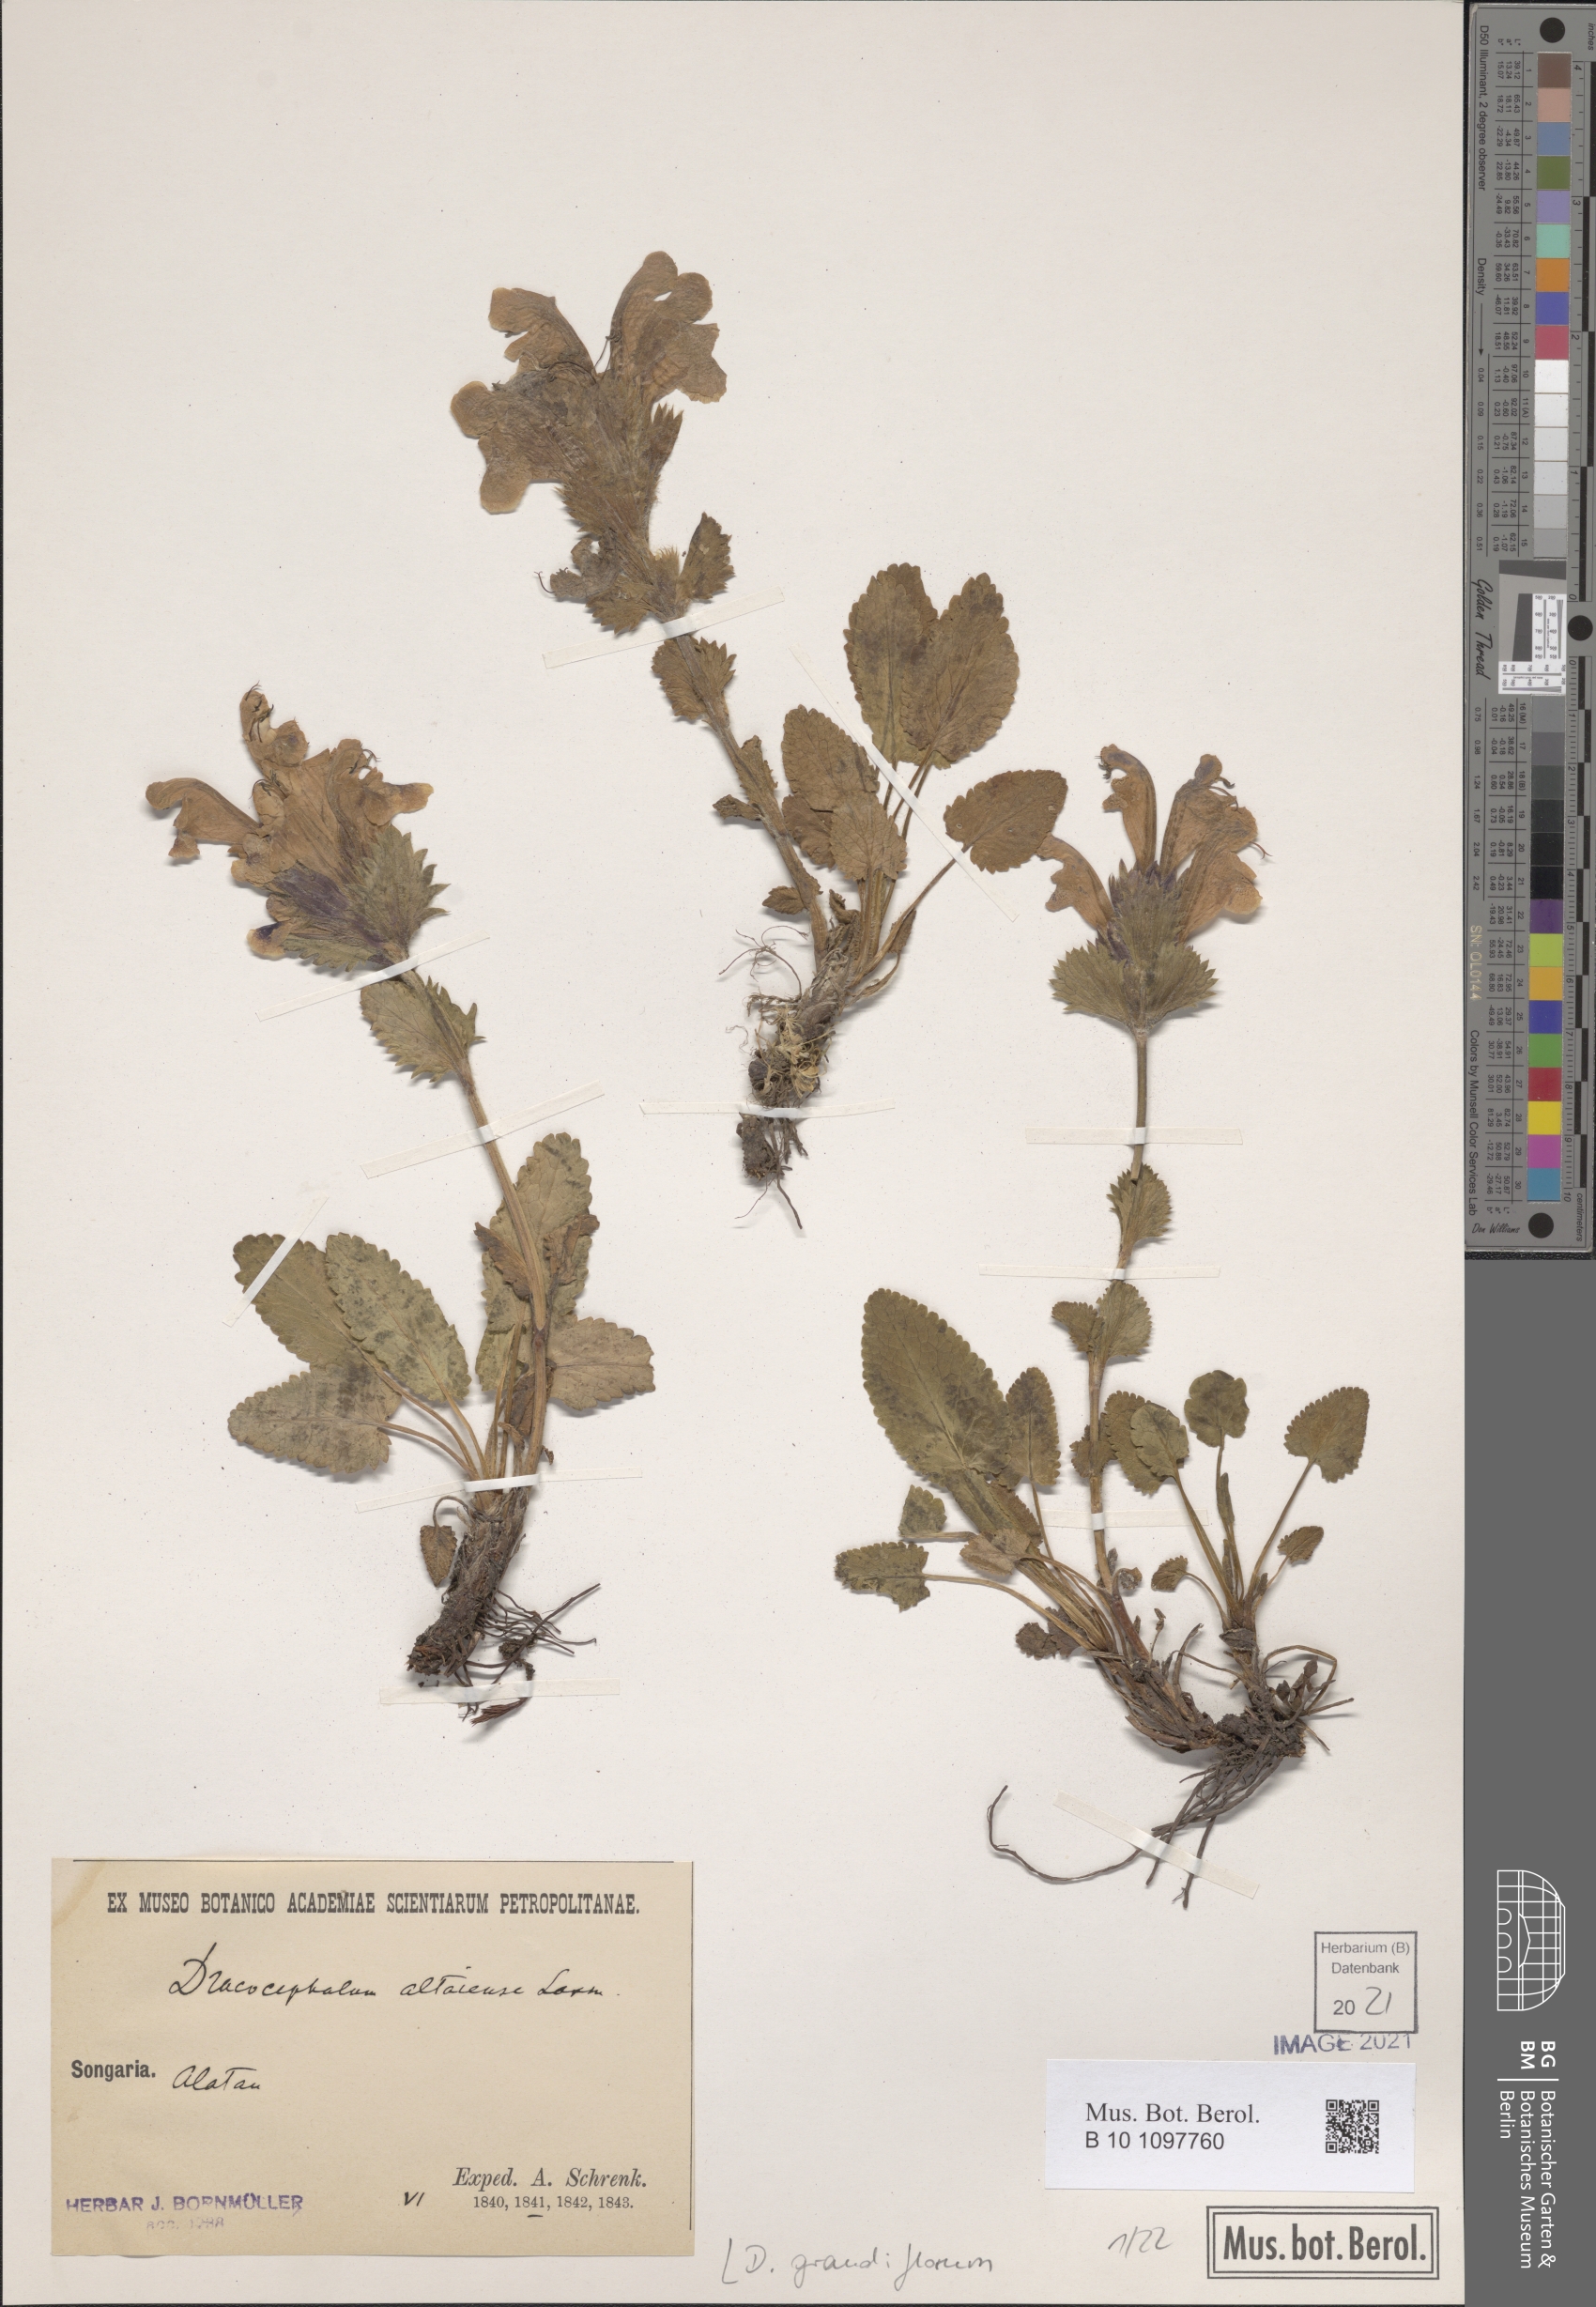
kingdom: Plantae
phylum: Tracheophyta
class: Magnoliopsida
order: Lamiales
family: Lamiaceae
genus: Dracocephalum
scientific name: Dracocephalum grandiflorum
